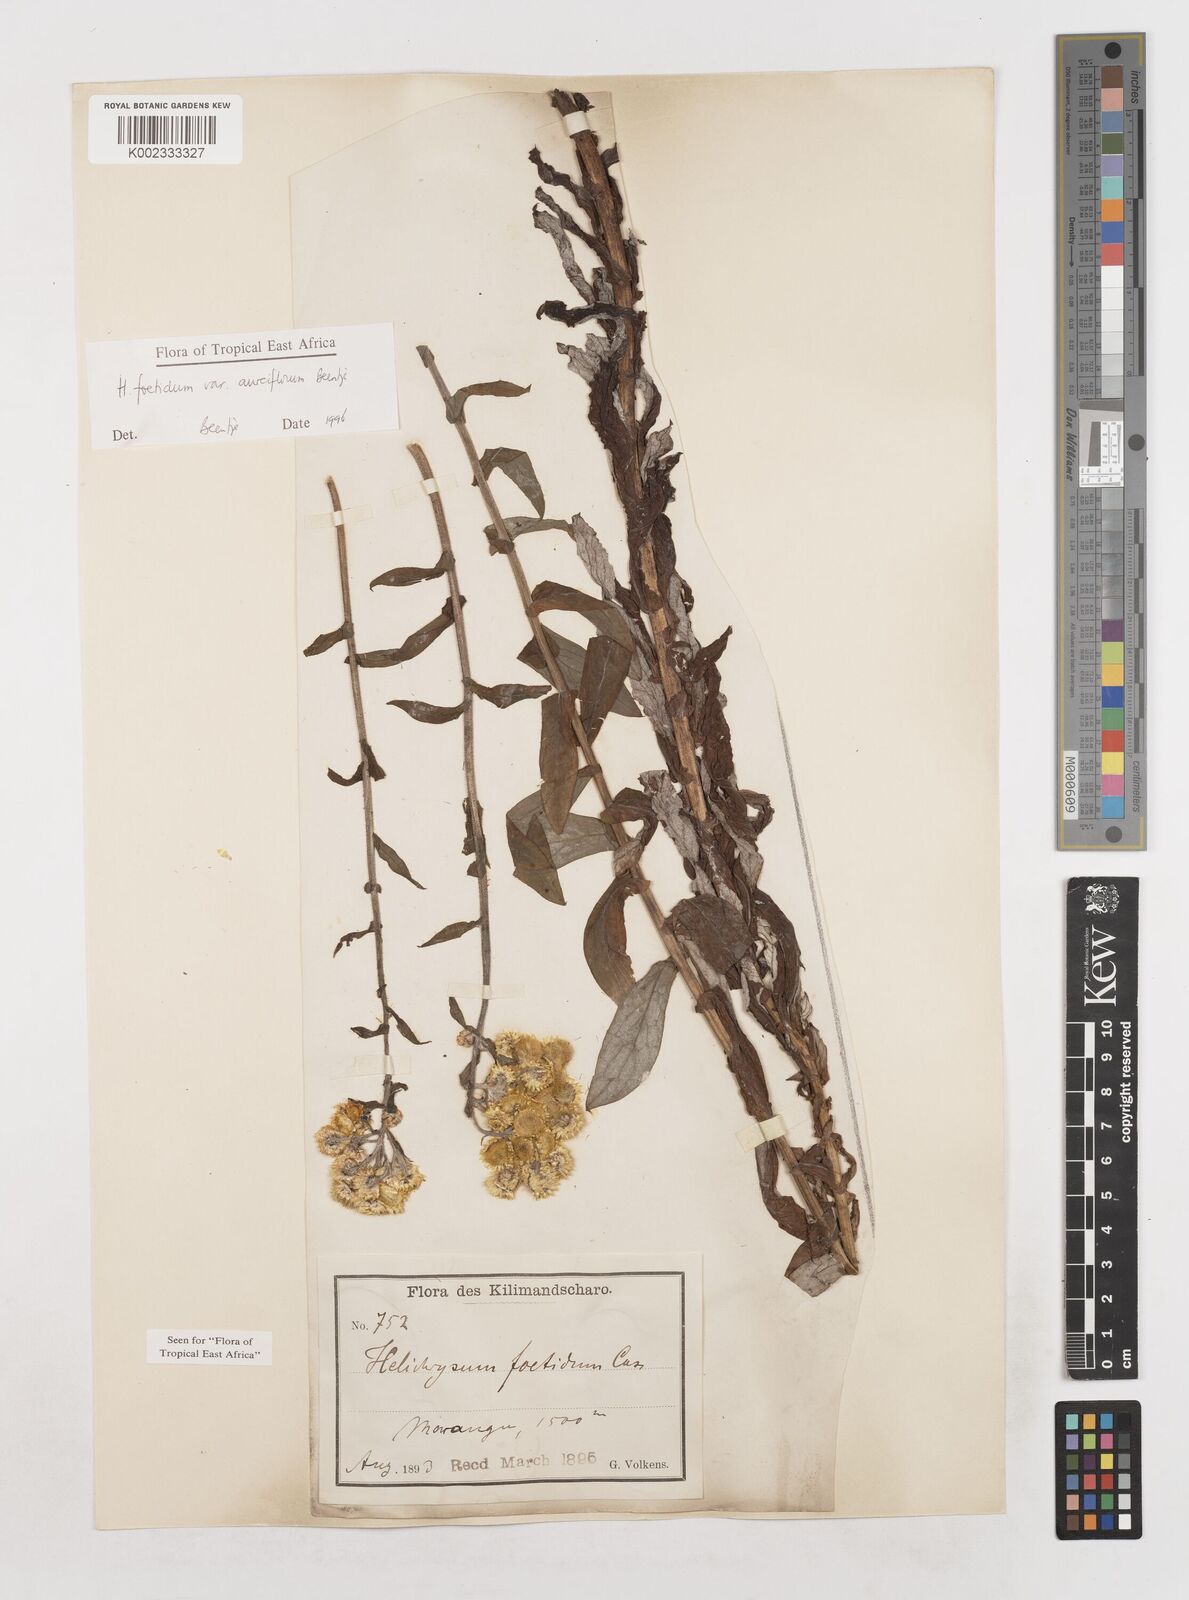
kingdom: Plantae
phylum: Tracheophyta
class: Magnoliopsida
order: Asterales
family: Asteraceae
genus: Helichrysum
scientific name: Helichrysum foetidum
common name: Stinking everlasting
